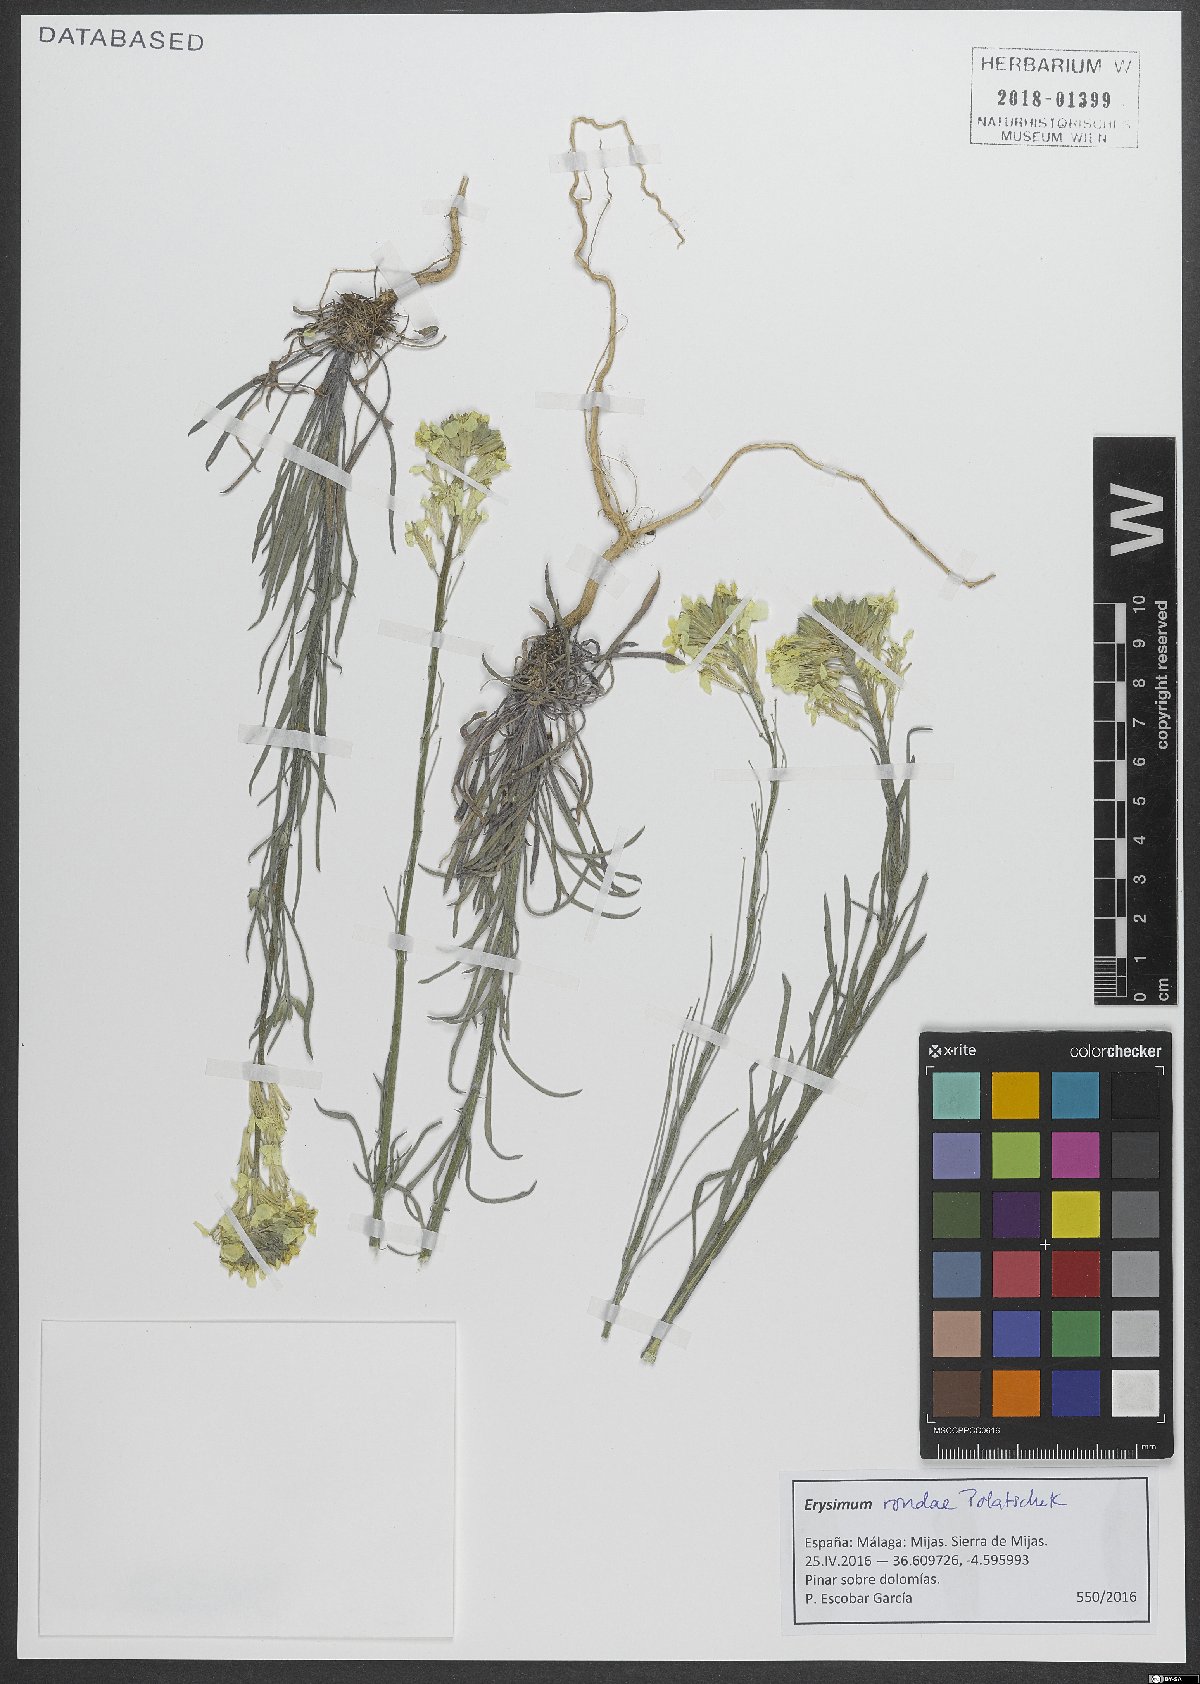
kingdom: Plantae
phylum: Tracheophyta
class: Magnoliopsida
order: Brassicales
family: Brassicaceae
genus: Erysimum
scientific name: Erysimum nevadense
